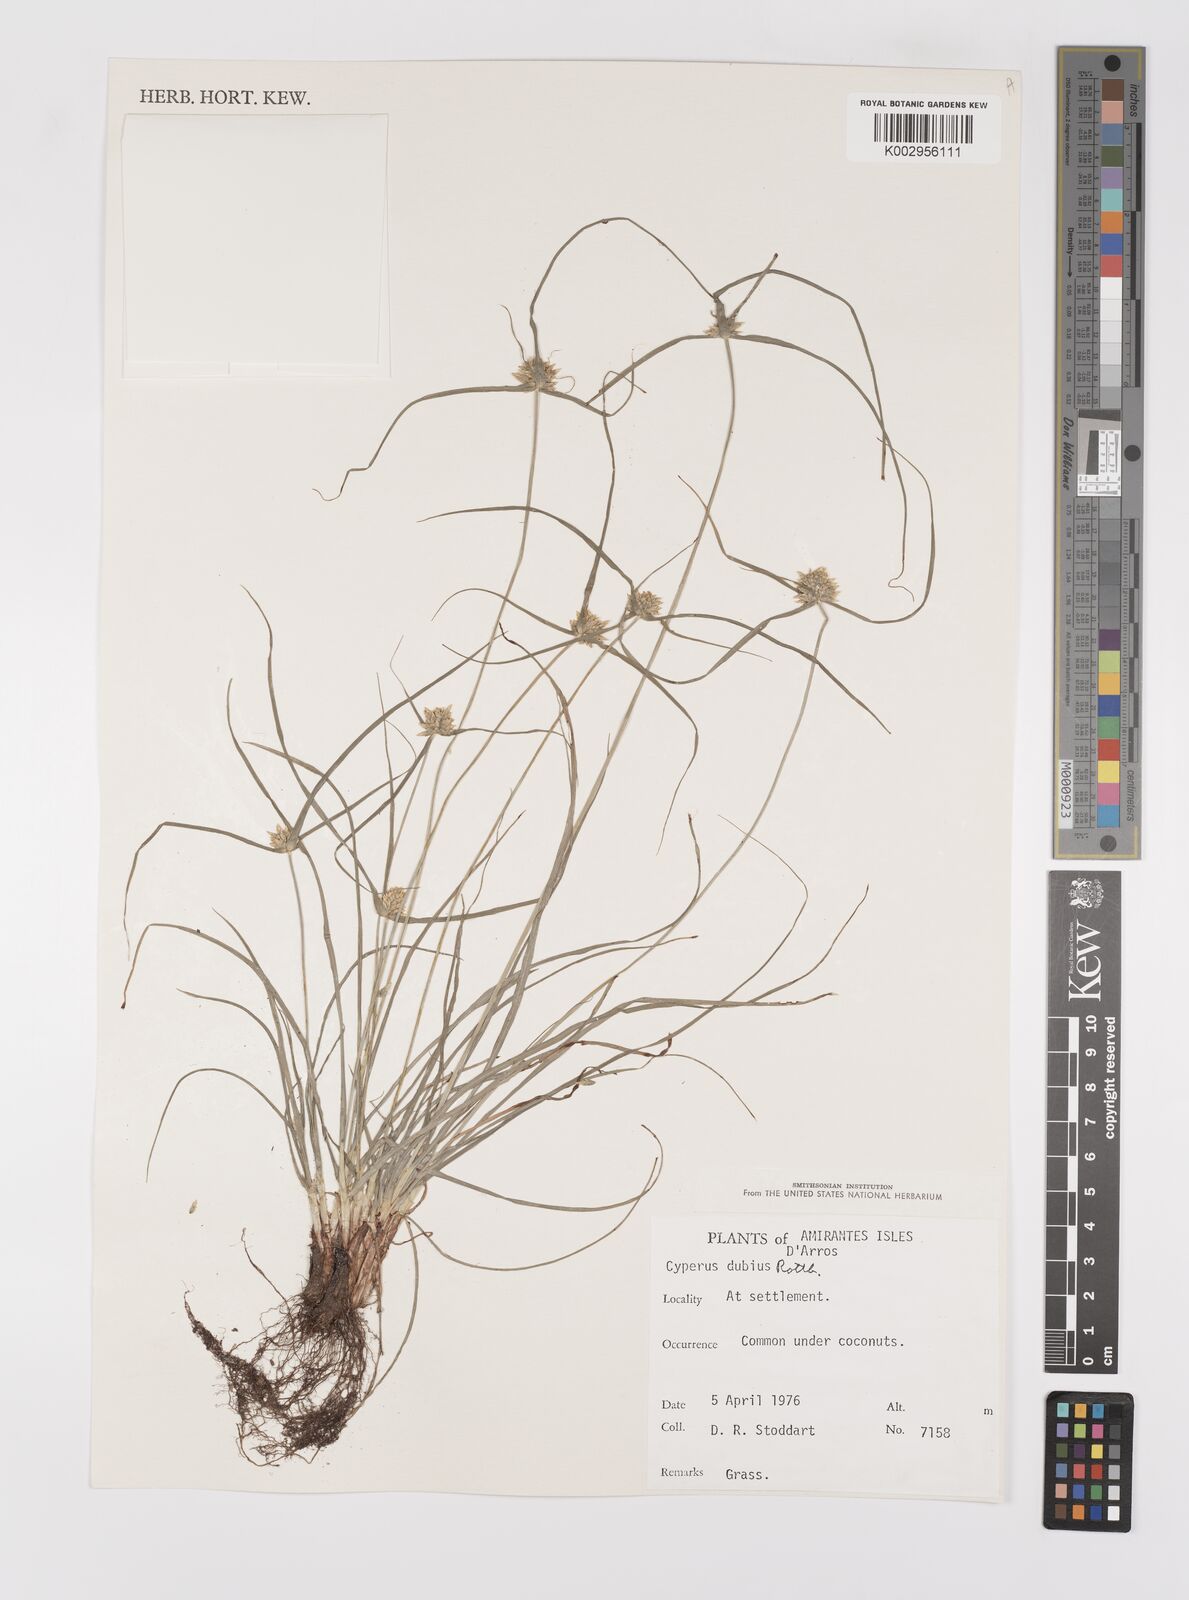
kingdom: Plantae
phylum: Tracheophyta
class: Liliopsida
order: Poales
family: Cyperaceae
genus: Cyperus
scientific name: Cyperus dubius
